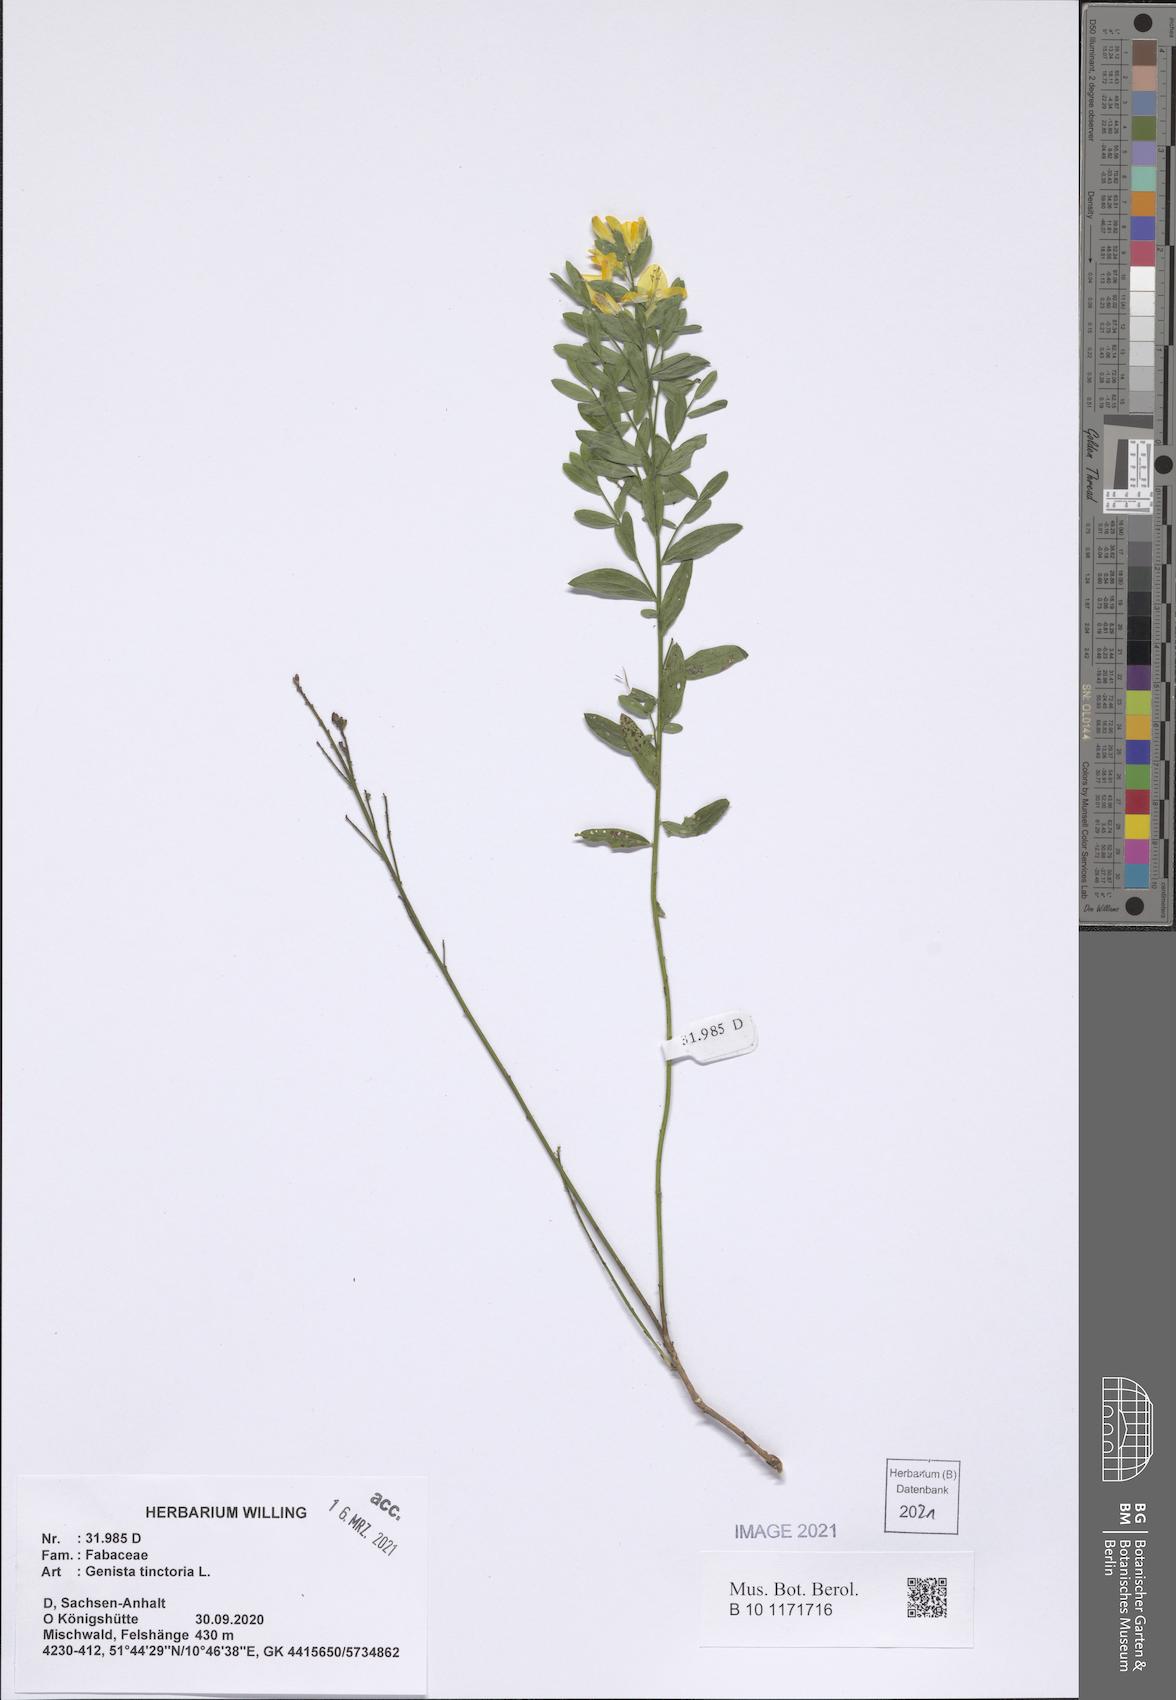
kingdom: Plantae
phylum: Tracheophyta
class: Magnoliopsida
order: Fabales
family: Fabaceae
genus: Genista
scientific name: Genista tinctoria
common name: Dyer's greenweed
